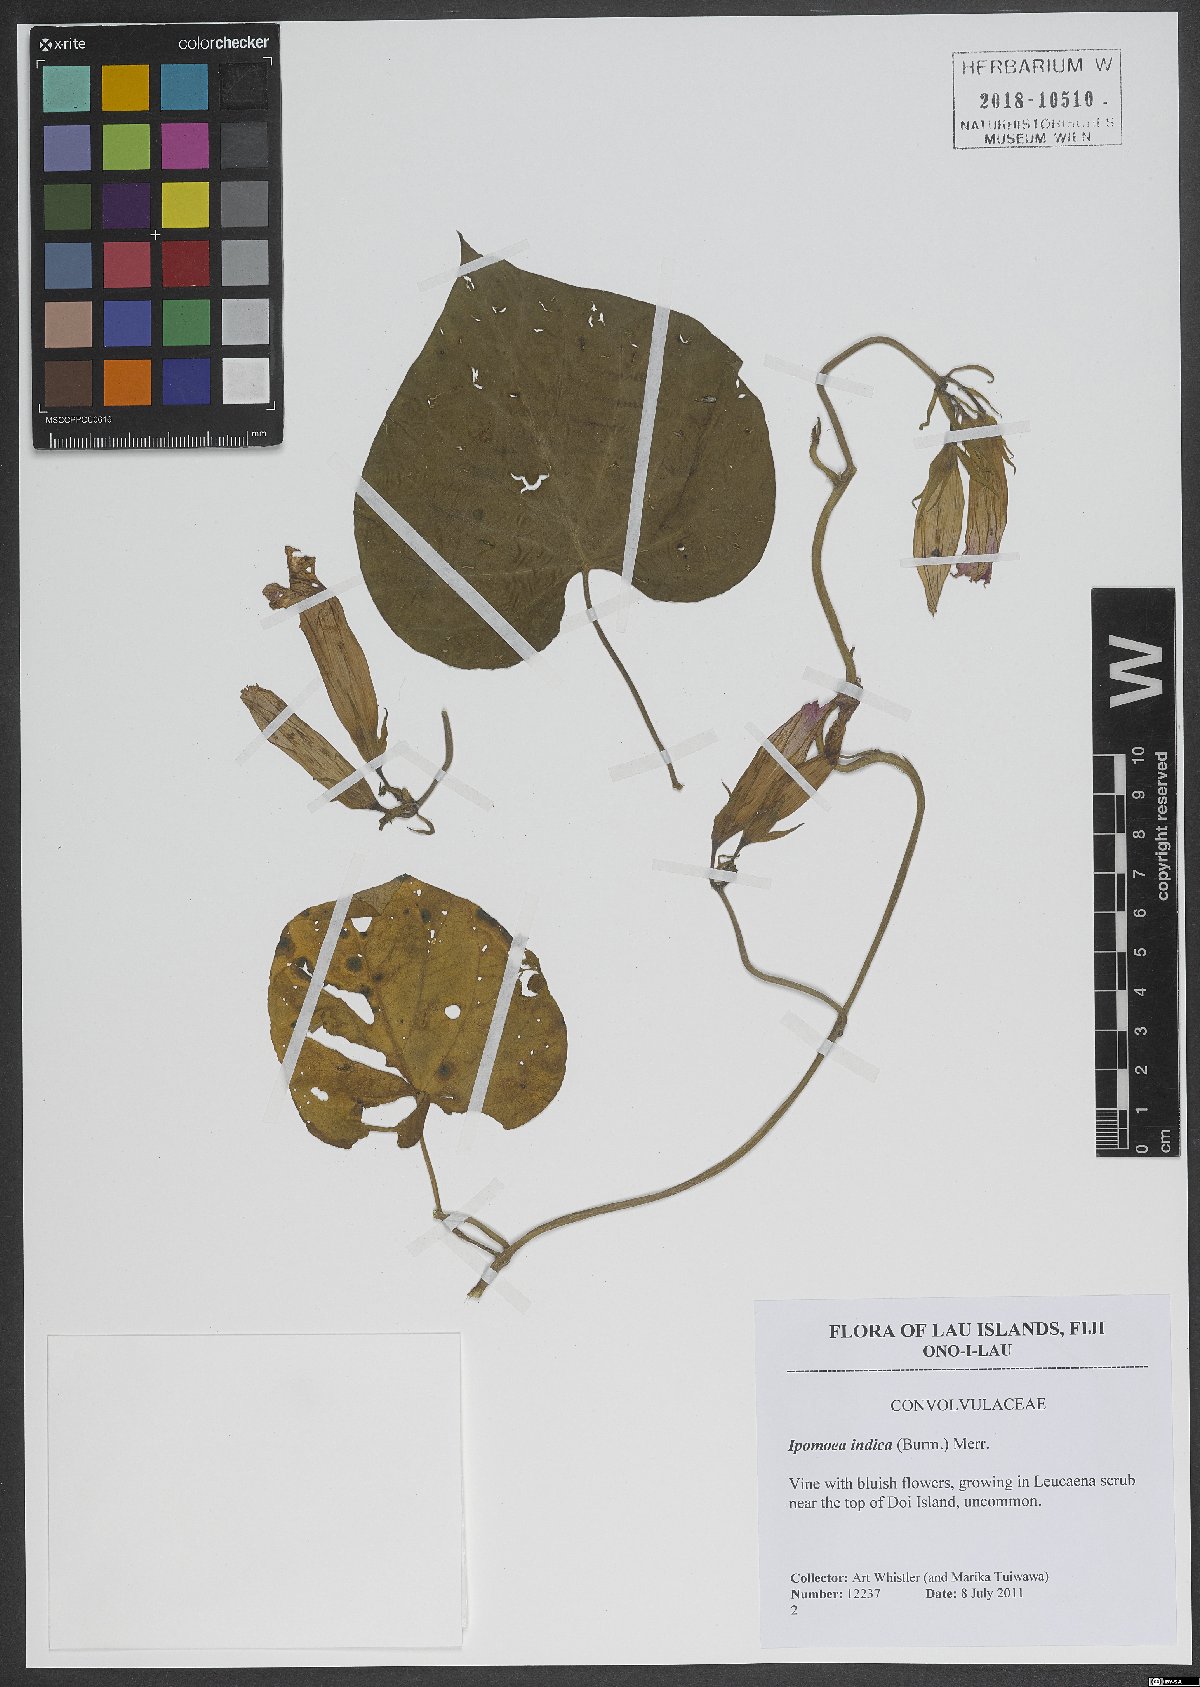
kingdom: Plantae
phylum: Tracheophyta
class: Magnoliopsida
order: Solanales
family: Convolvulaceae
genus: Ipomoea
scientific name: Ipomoea indica
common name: Blue dawnflower
